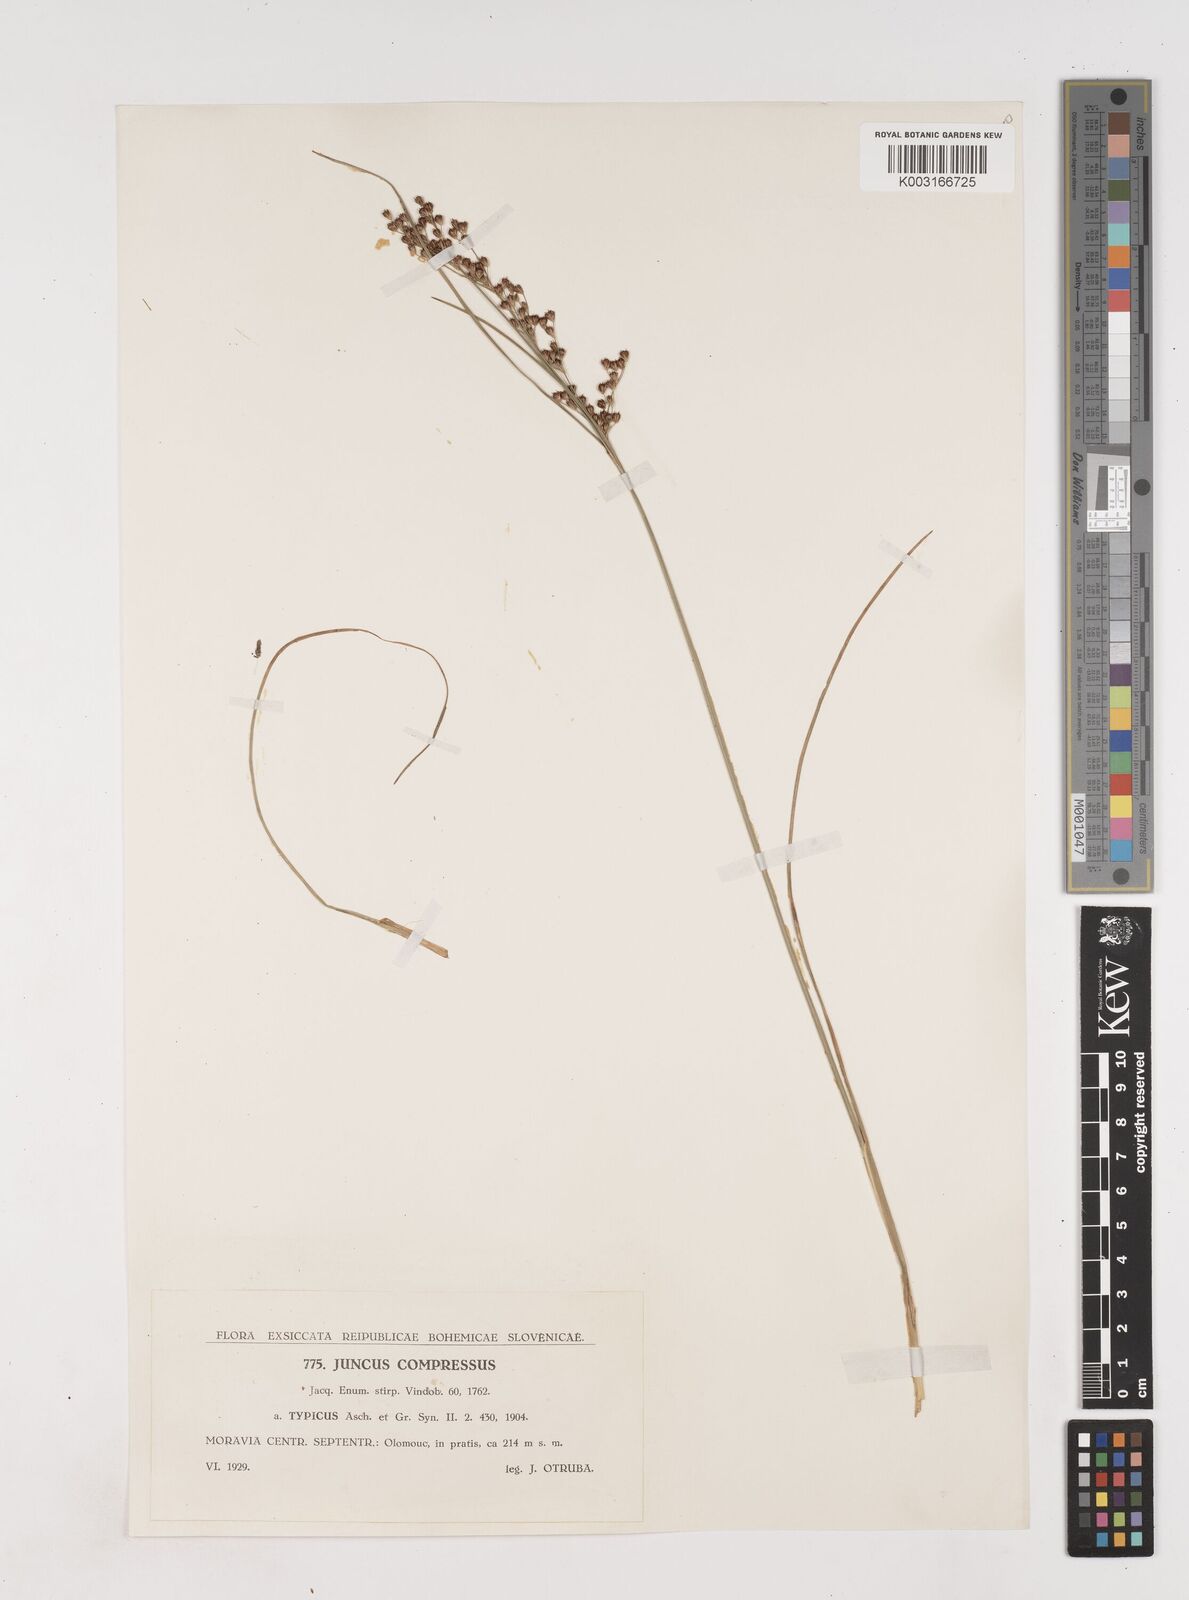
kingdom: Plantae
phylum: Tracheophyta
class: Liliopsida
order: Poales
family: Juncaceae
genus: Juncus
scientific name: Juncus
